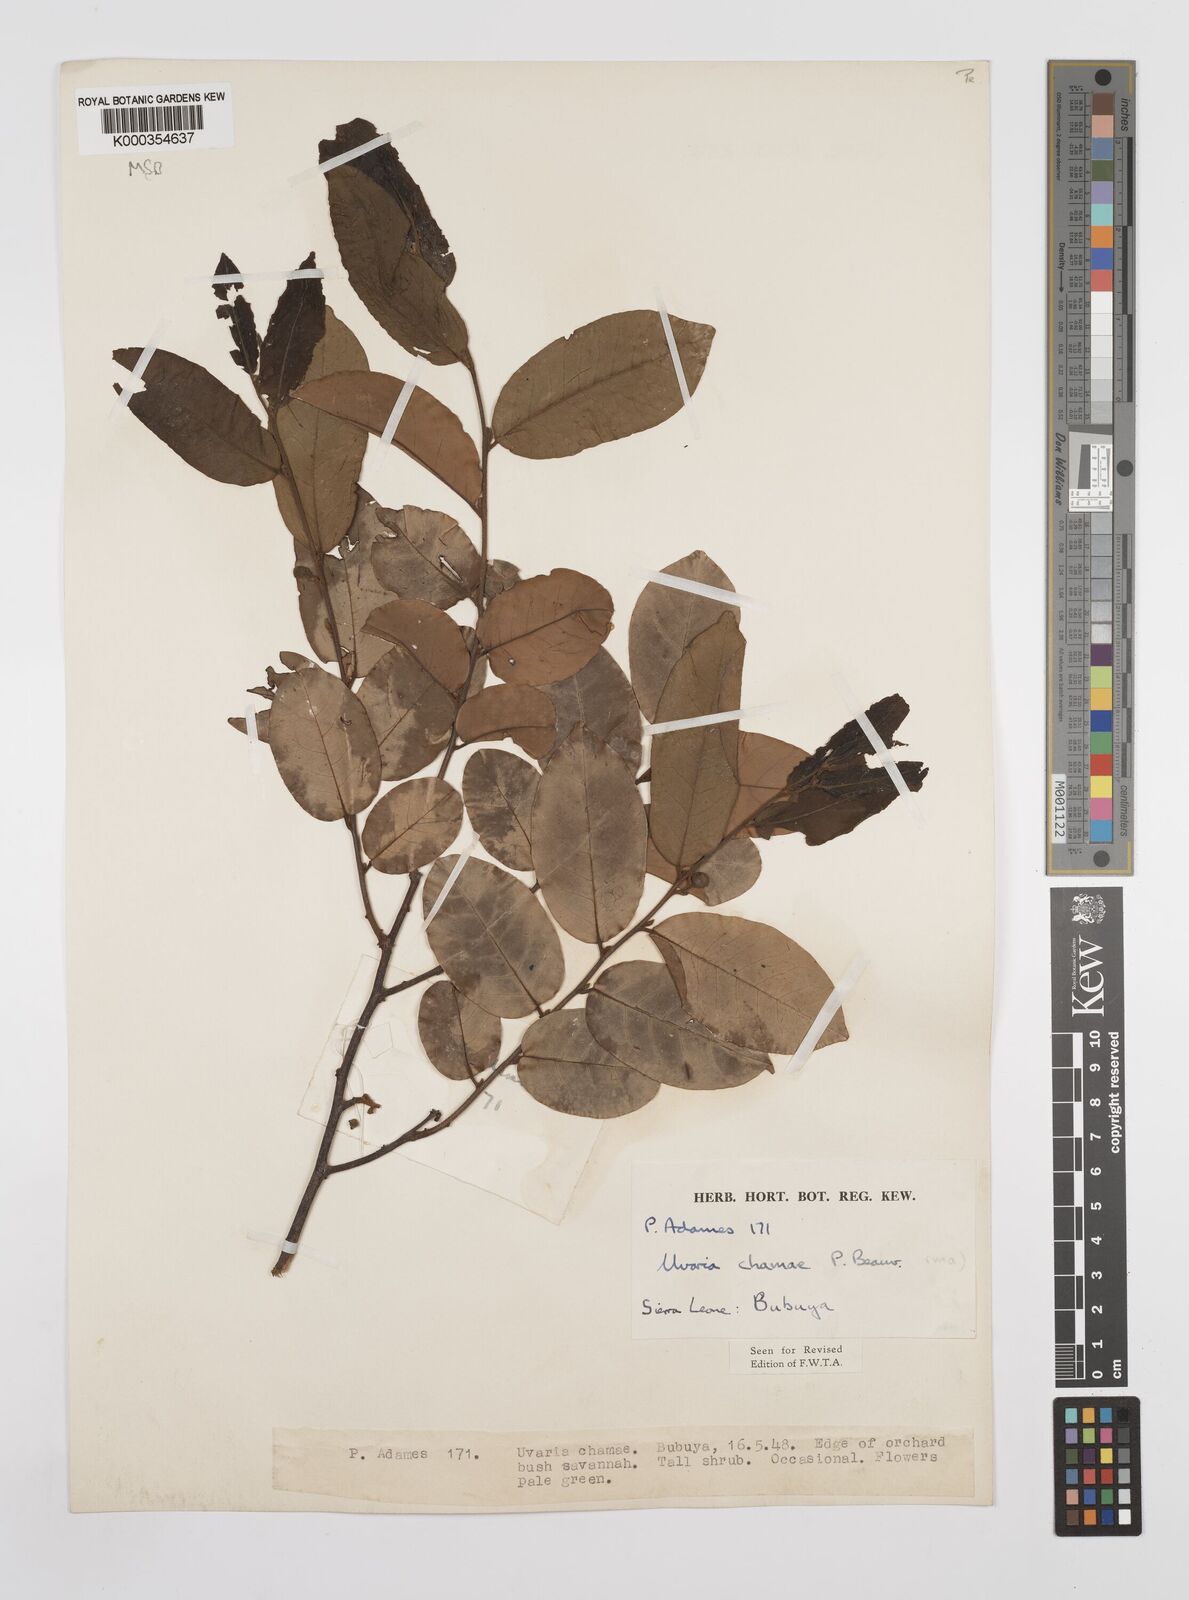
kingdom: Plantae
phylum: Tracheophyta
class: Magnoliopsida
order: Magnoliales
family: Annonaceae
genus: Uvaria
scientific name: Uvaria chamae
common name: Finger-root
